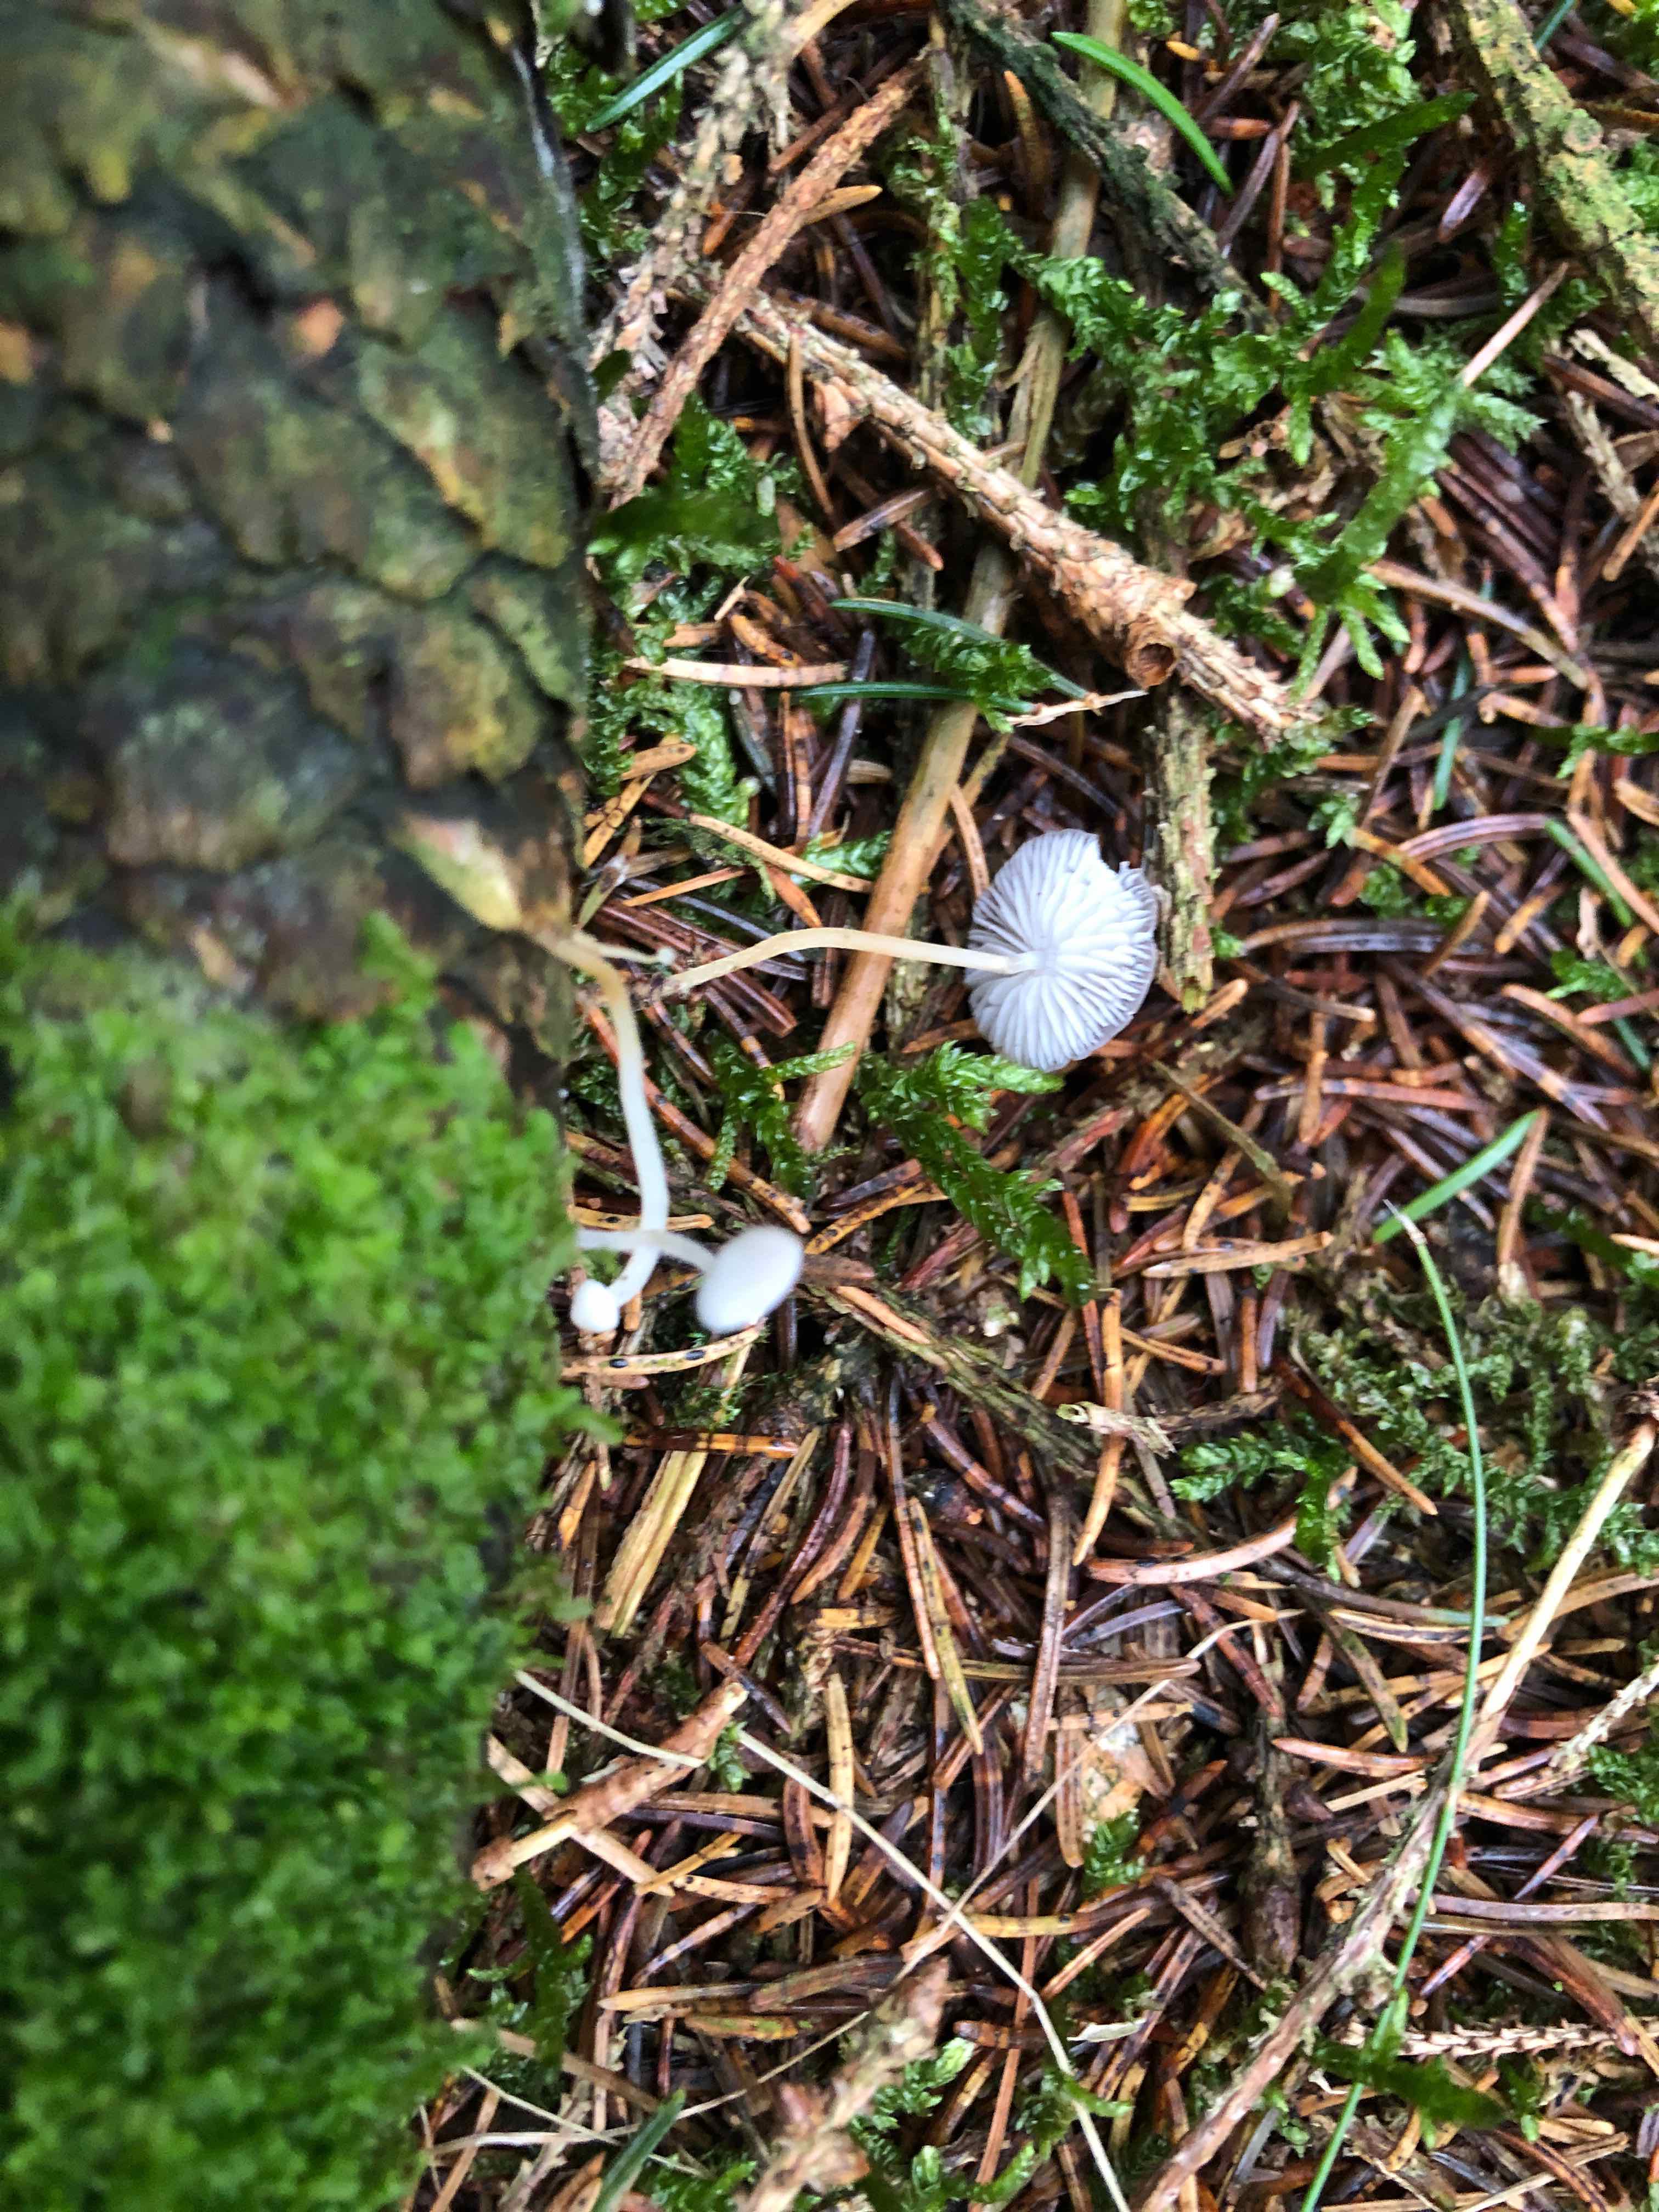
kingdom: Fungi
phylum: Basidiomycota
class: Agaricomycetes
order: Agaricales
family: Physalacriaceae
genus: Strobilurus
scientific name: Strobilurus esculentus
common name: gran-koglehat
